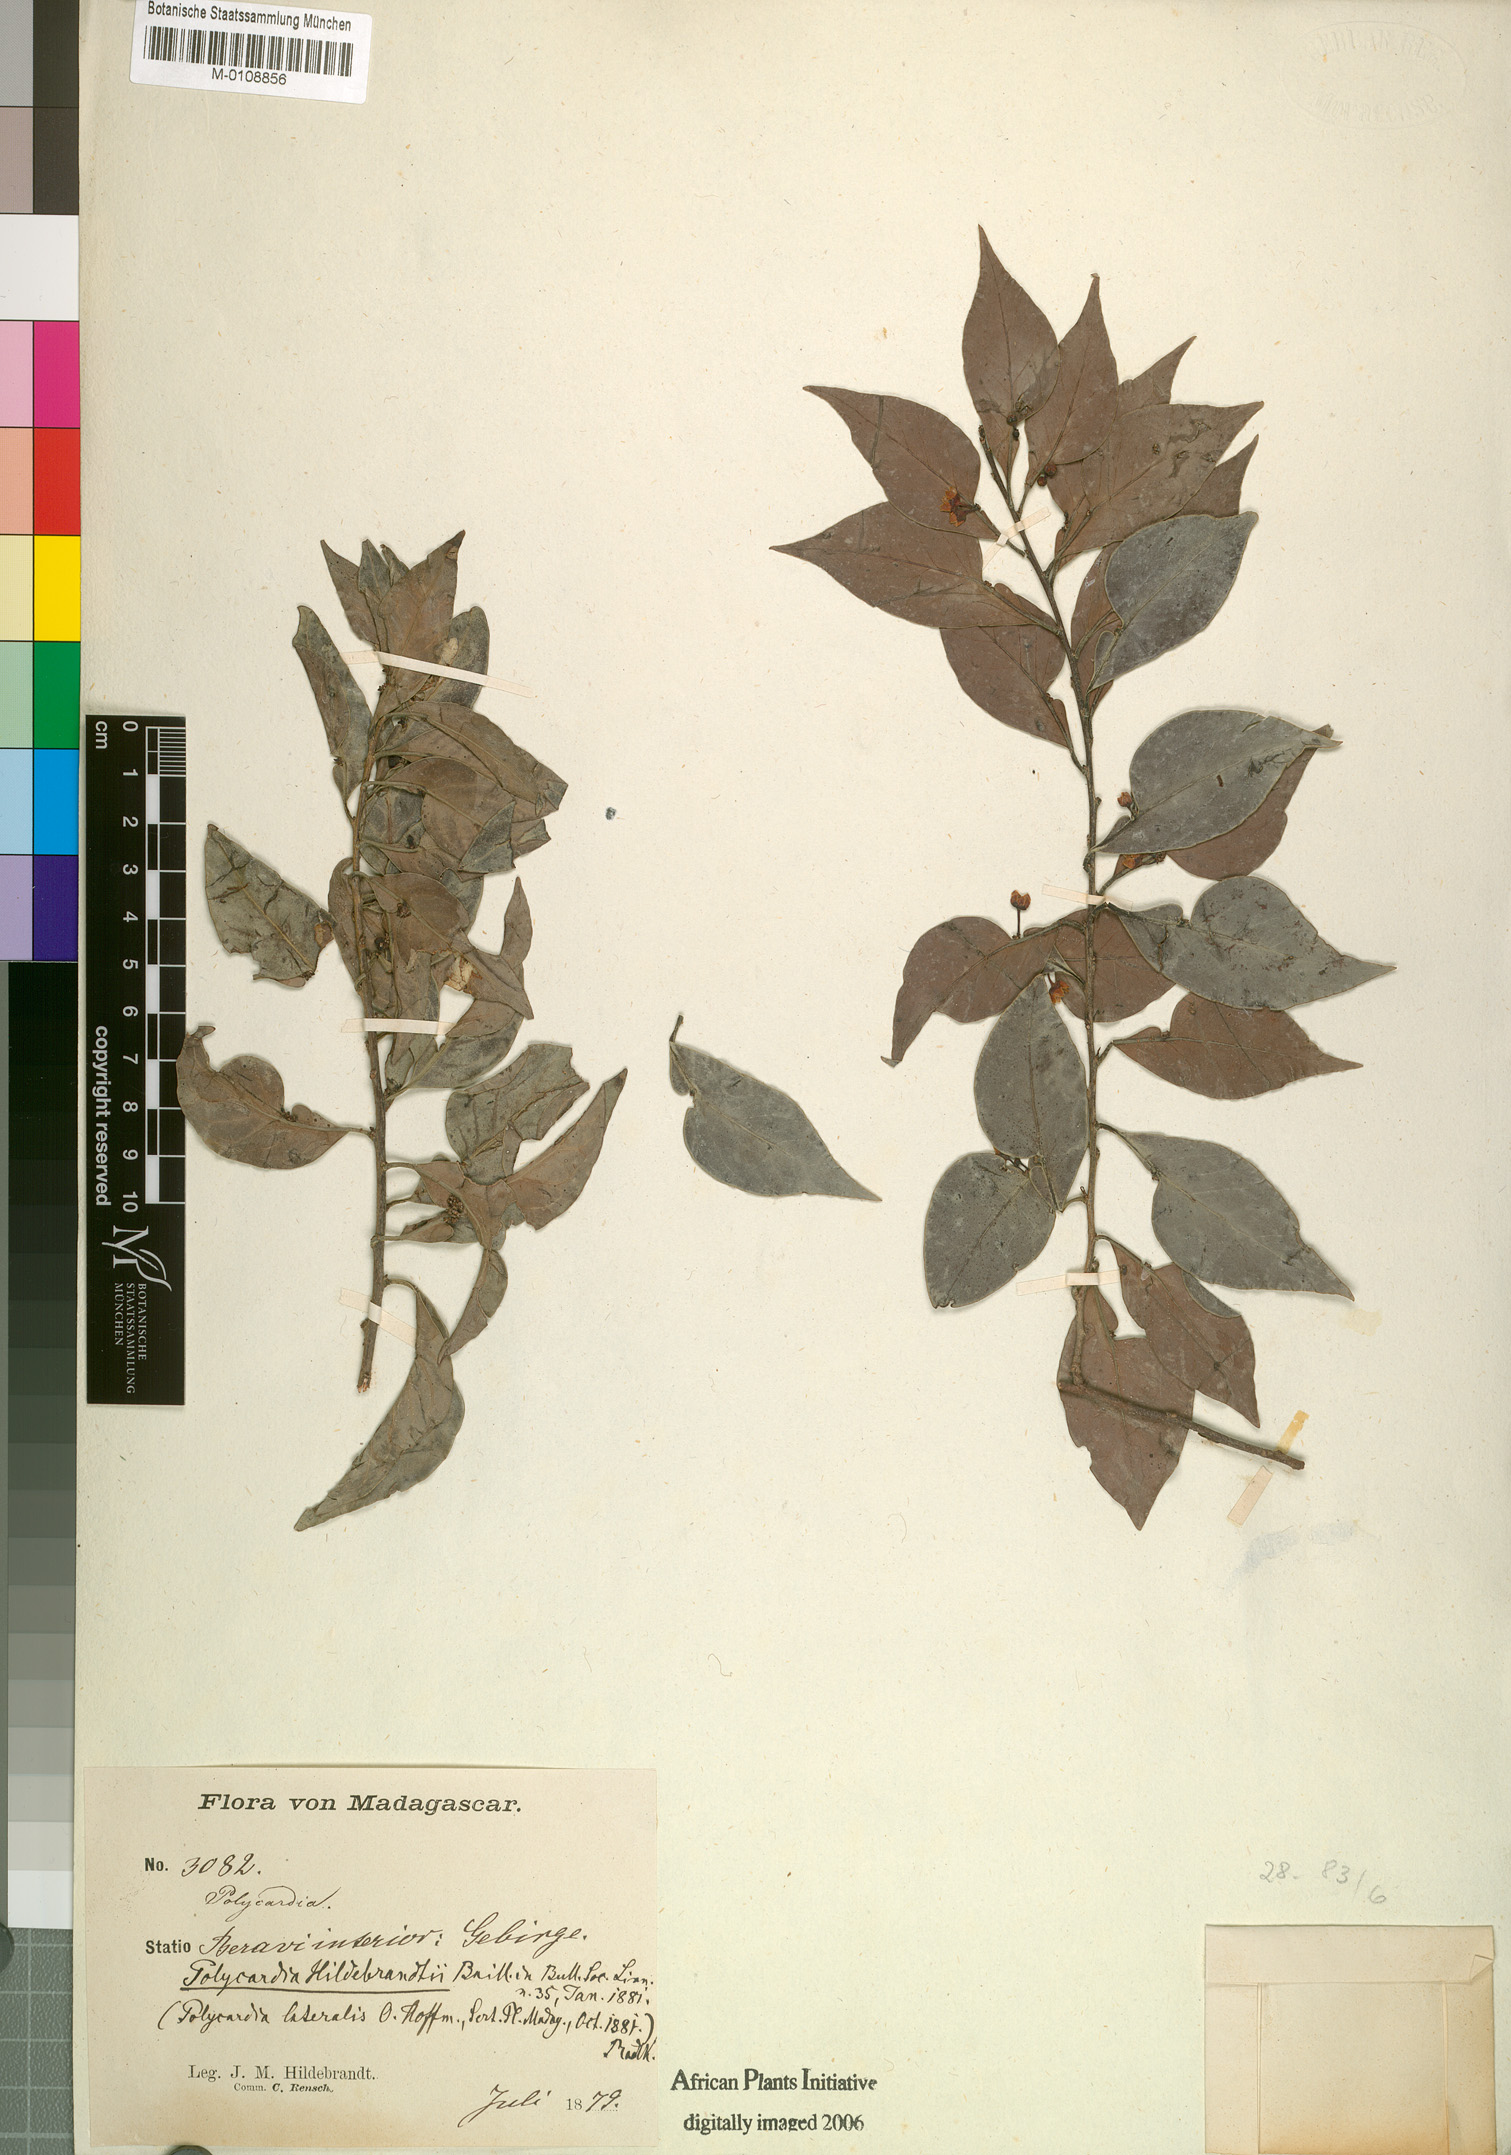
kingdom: Plantae
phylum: Tracheophyta
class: Magnoliopsida
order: Celastrales
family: Celastraceae
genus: Polycardia
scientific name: Polycardia lateralis
